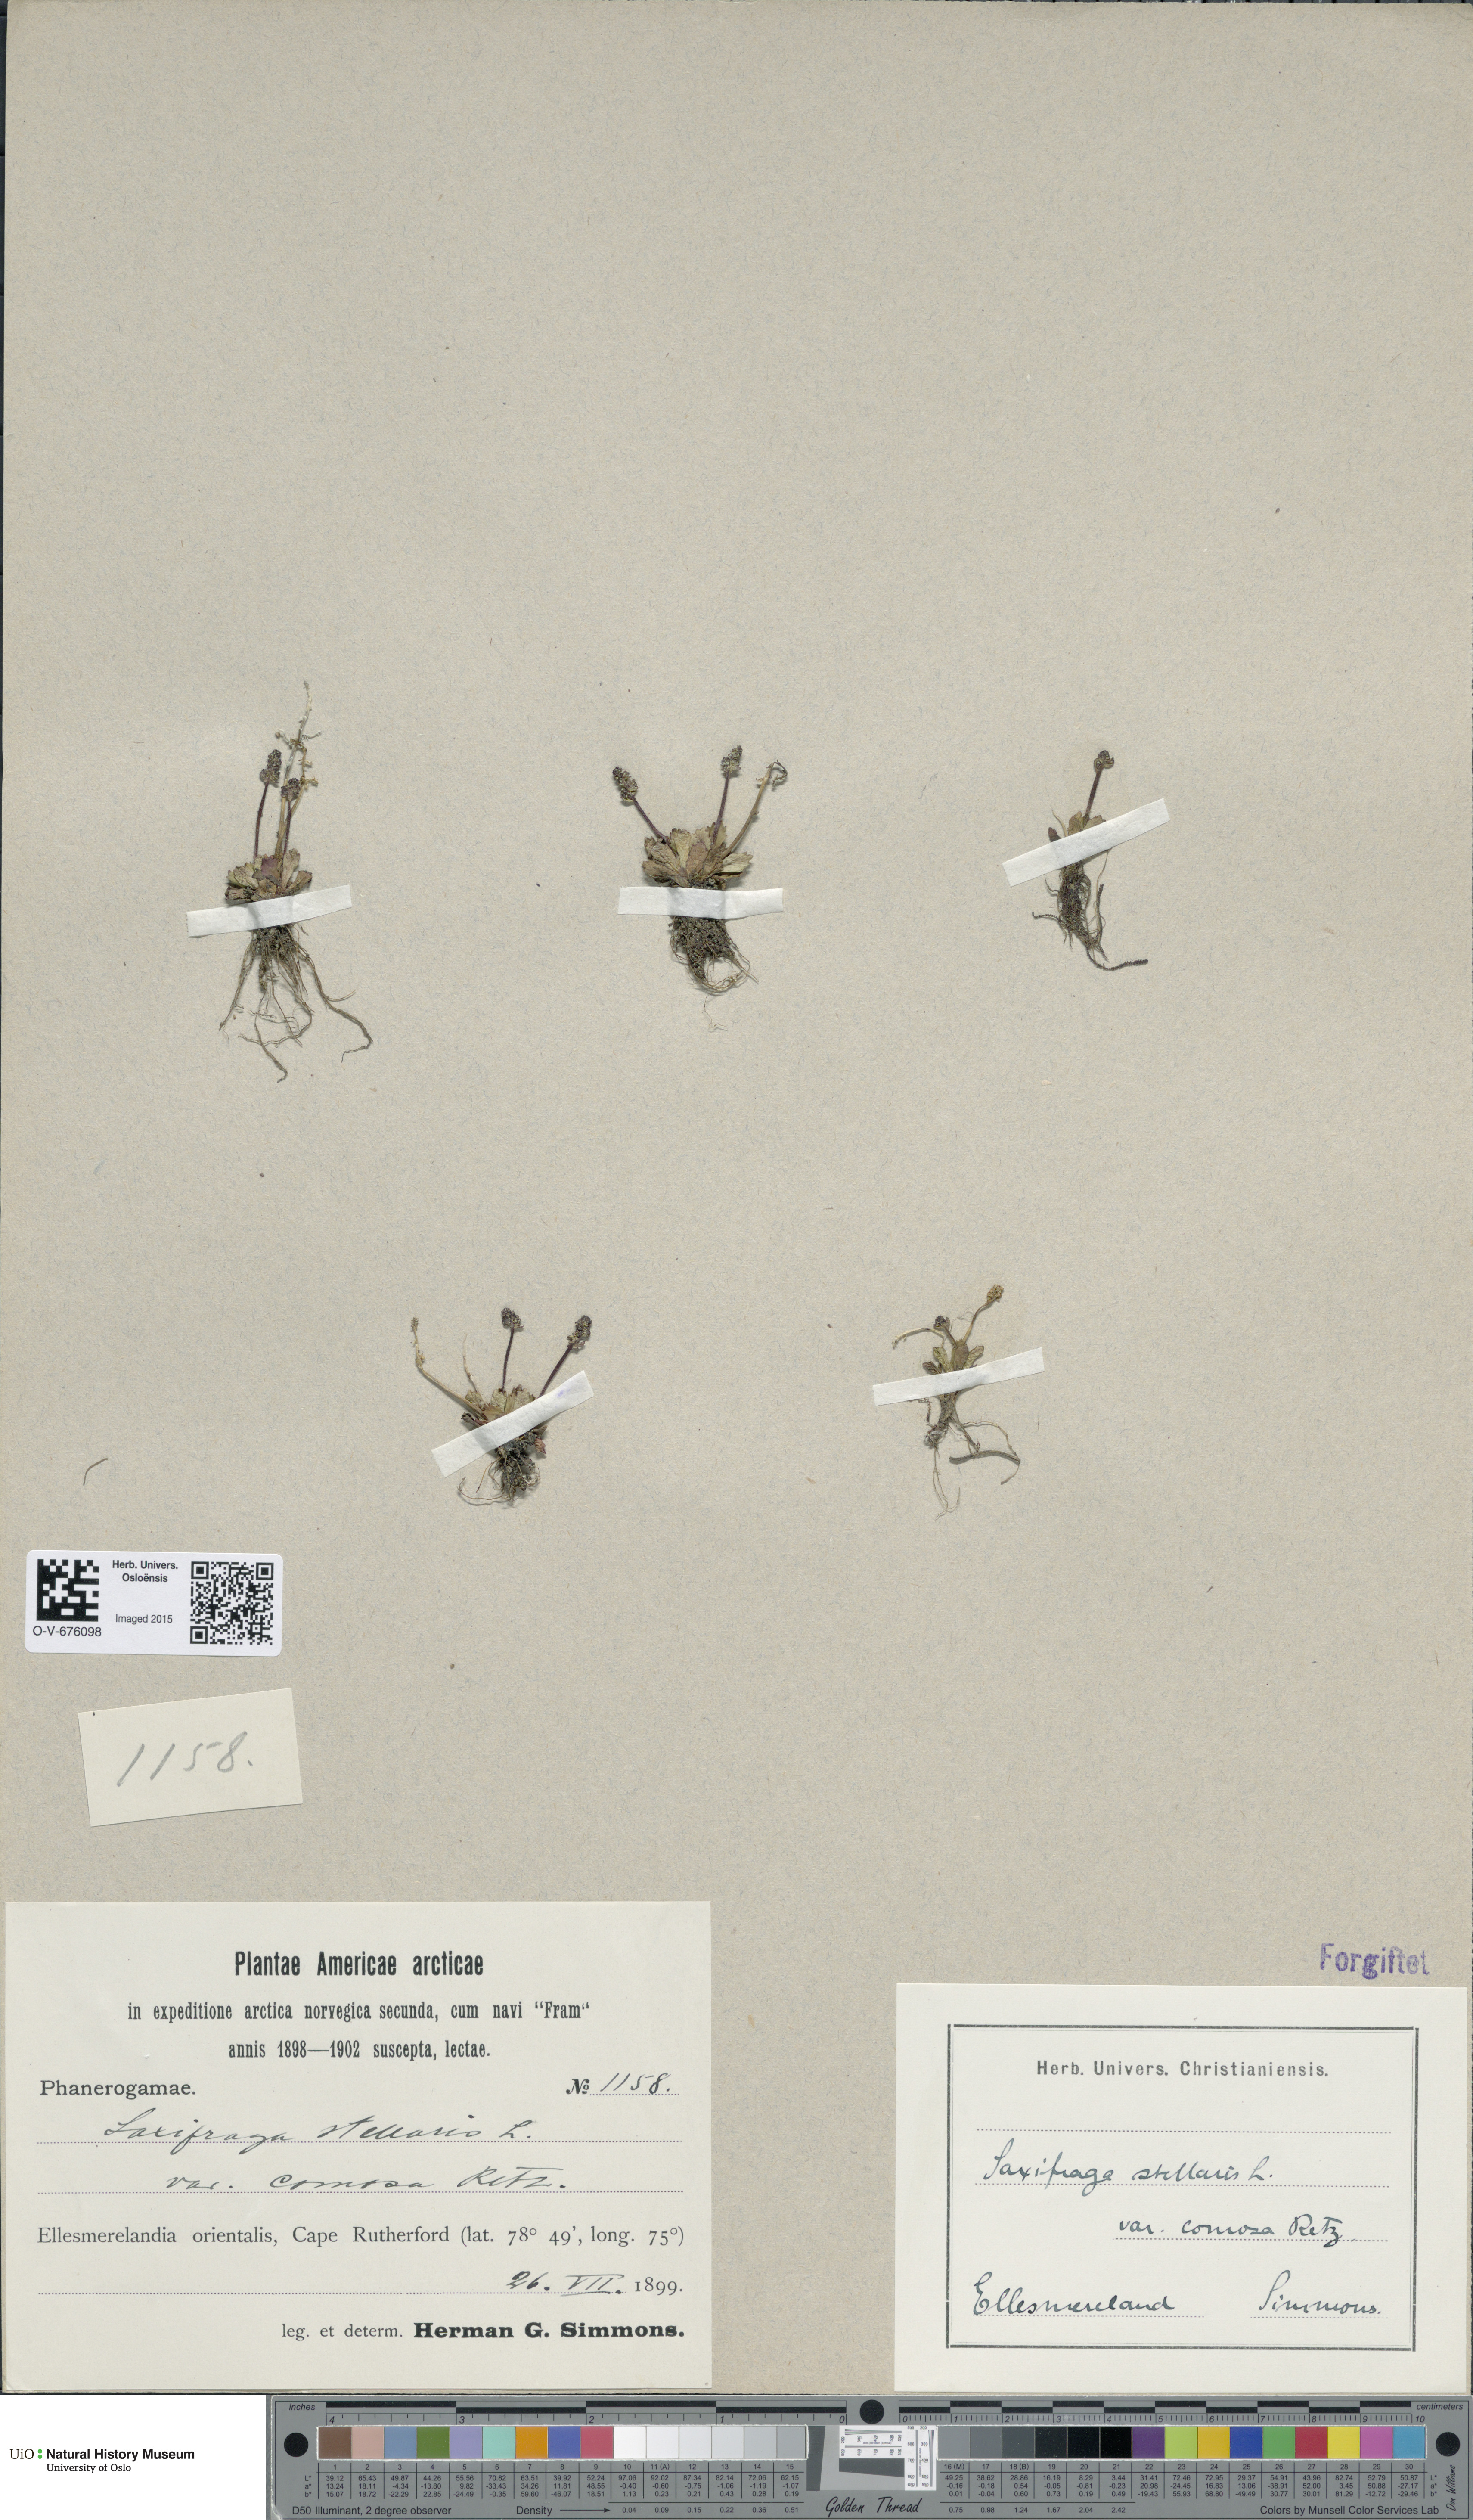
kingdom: Plantae
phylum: Tracheophyta
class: Magnoliopsida
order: Saxifragales
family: Saxifragaceae
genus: Micranthes
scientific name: Micranthes foliolosa
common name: Leafystem saxifrage
